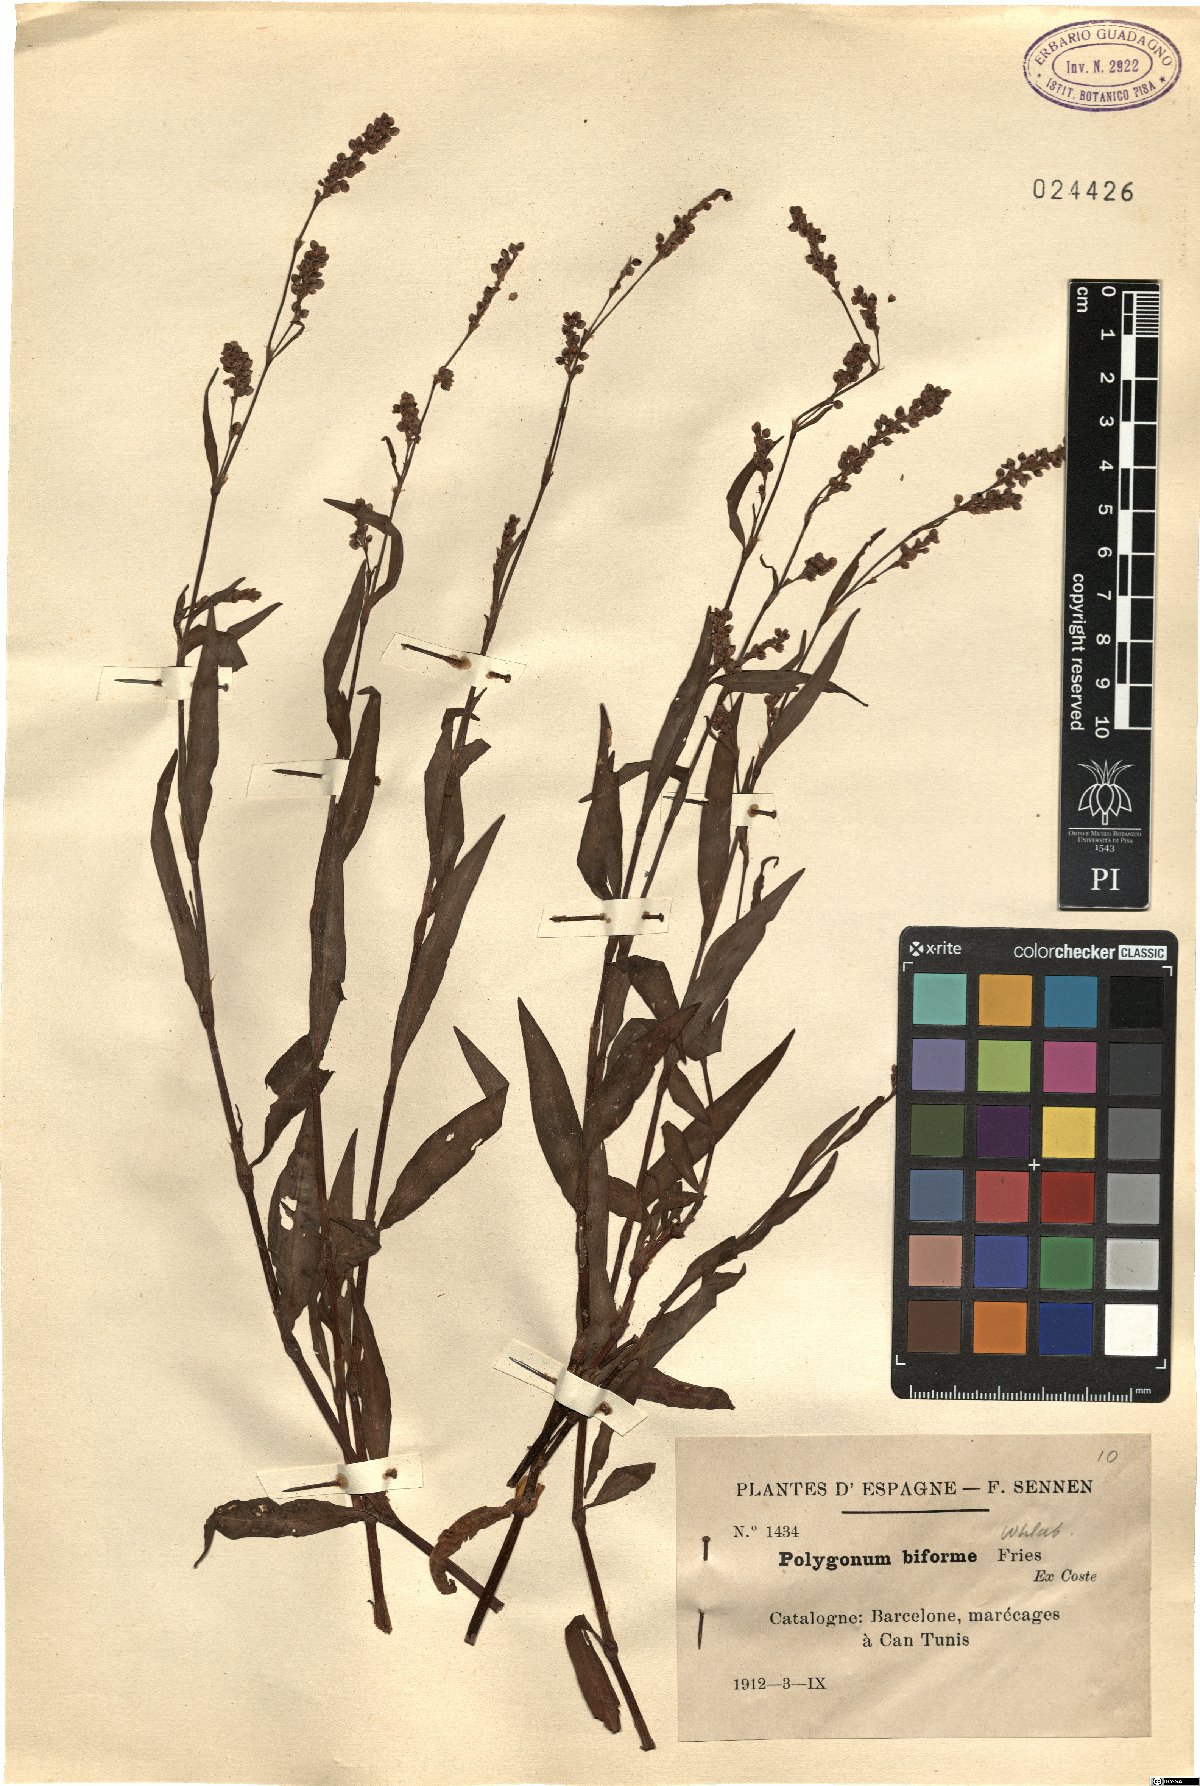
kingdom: Plantae
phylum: Tracheophyta
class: Magnoliopsida
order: Caryophyllales
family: Polygonaceae
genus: Persicaria
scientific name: Persicaria maculosa
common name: Redshank
